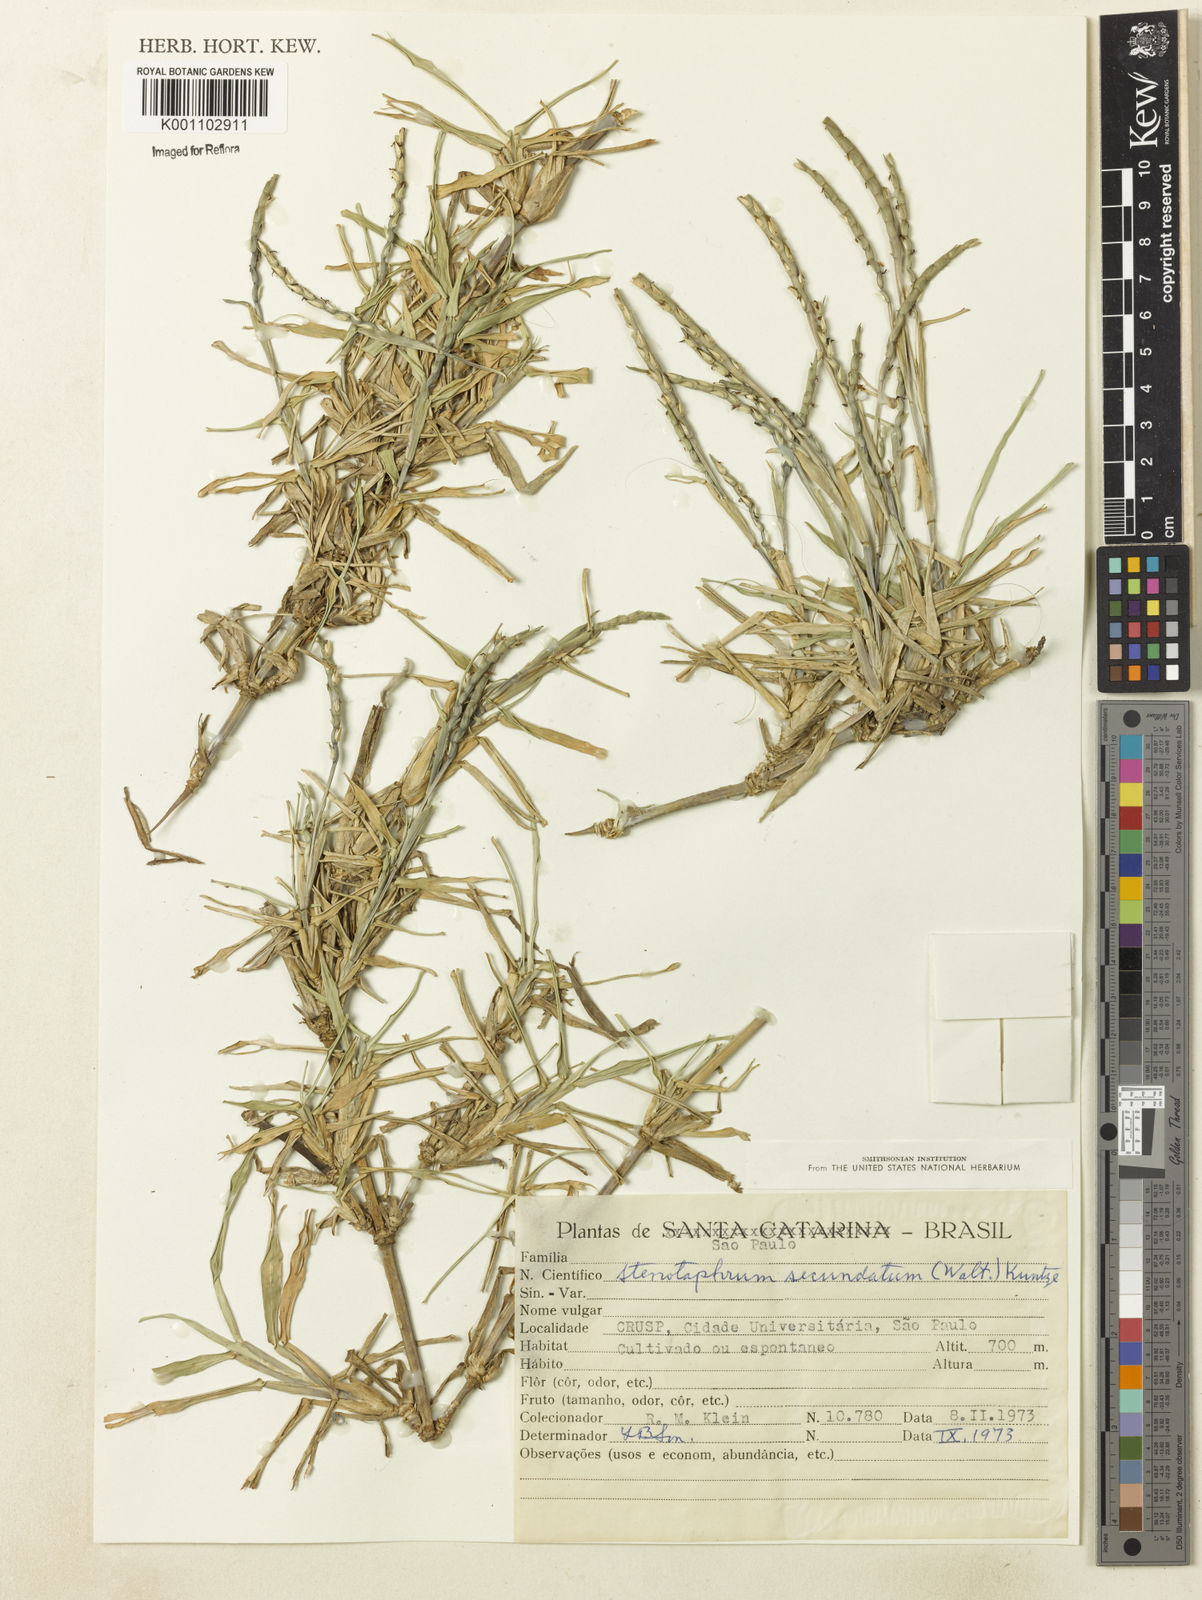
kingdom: Plantae
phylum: Tracheophyta
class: Liliopsida
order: Poales
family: Poaceae
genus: Stenotaphrum
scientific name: Stenotaphrum secundatum
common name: St. augustine grass
